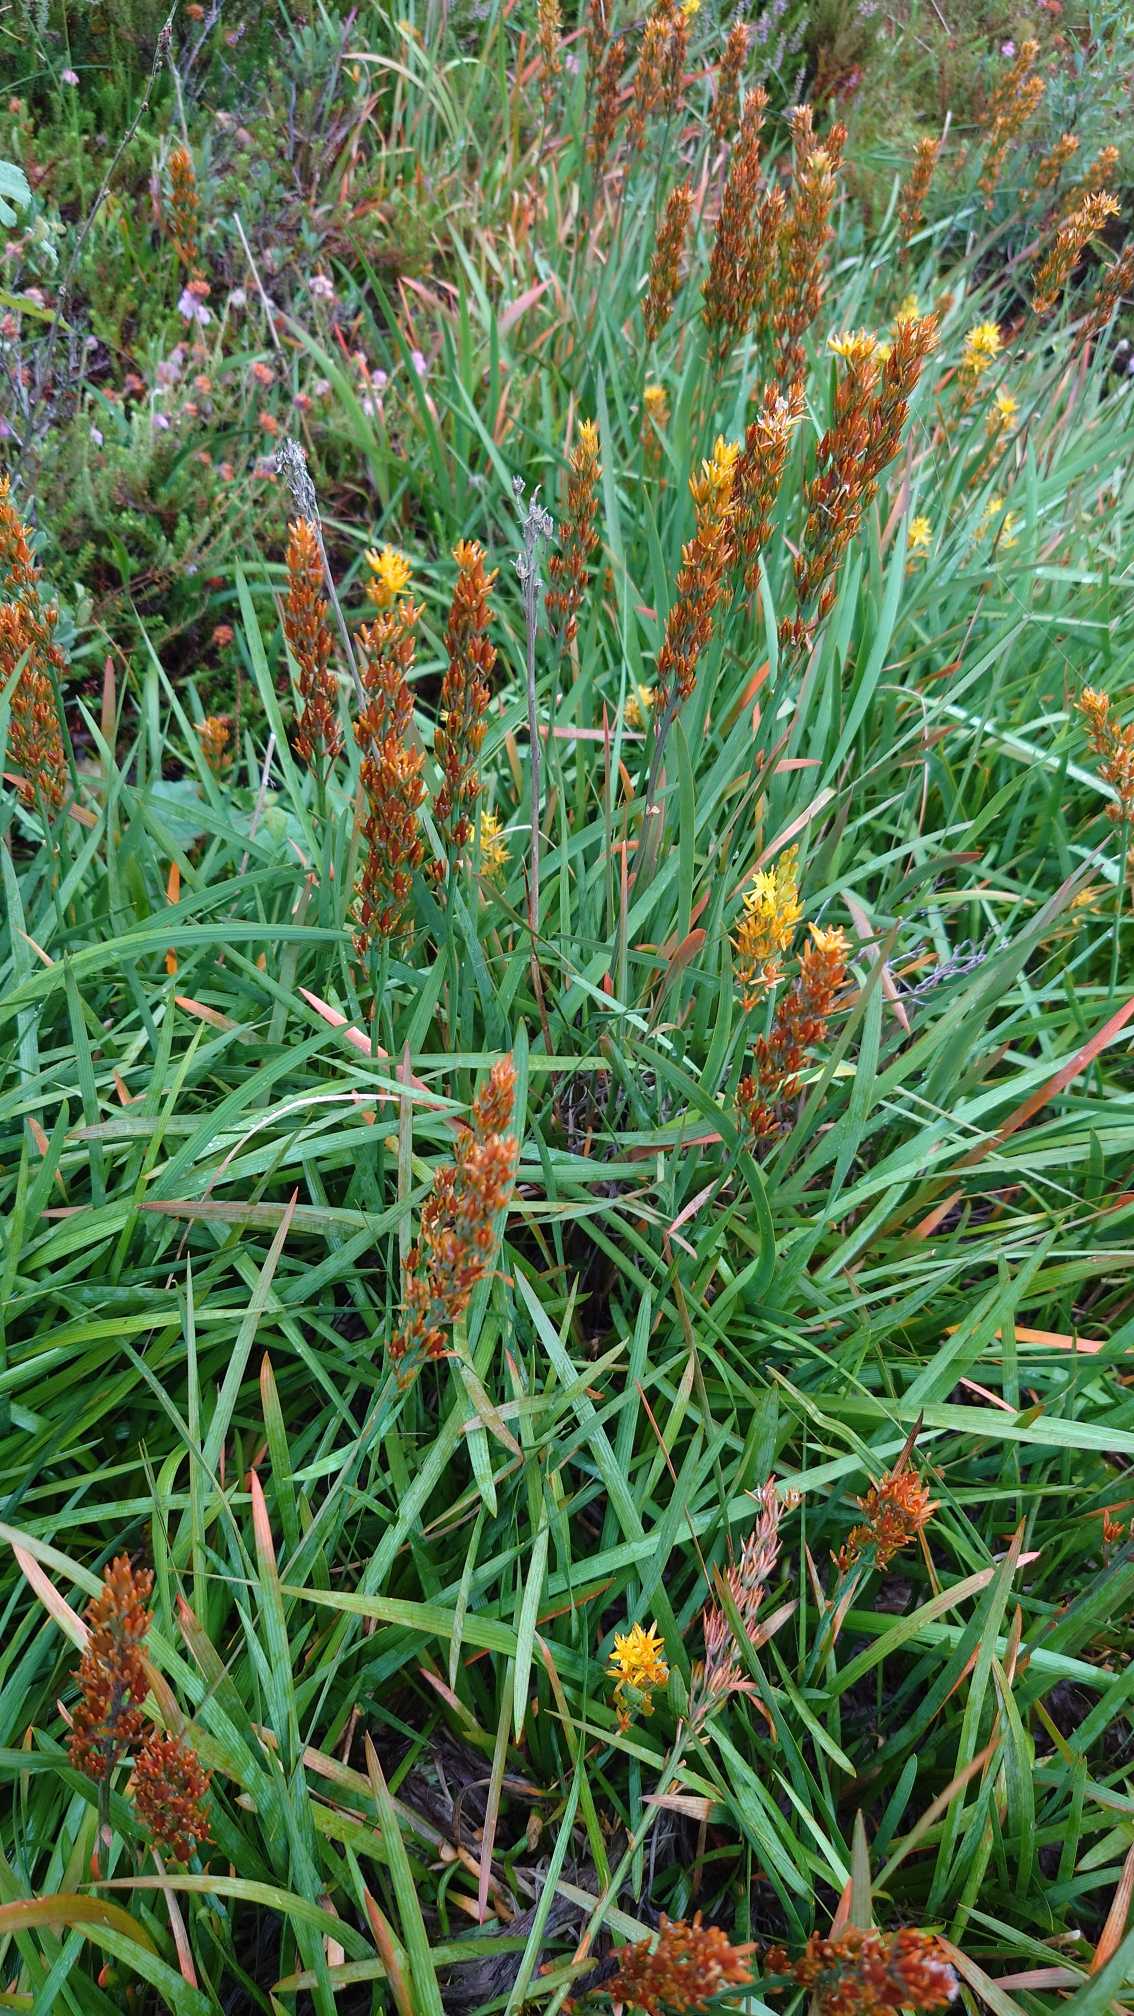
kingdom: Plantae
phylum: Tracheophyta
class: Liliopsida
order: Dioscoreales
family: Nartheciaceae
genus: Narthecium
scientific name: Narthecium ossifragum
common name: Benbræk
